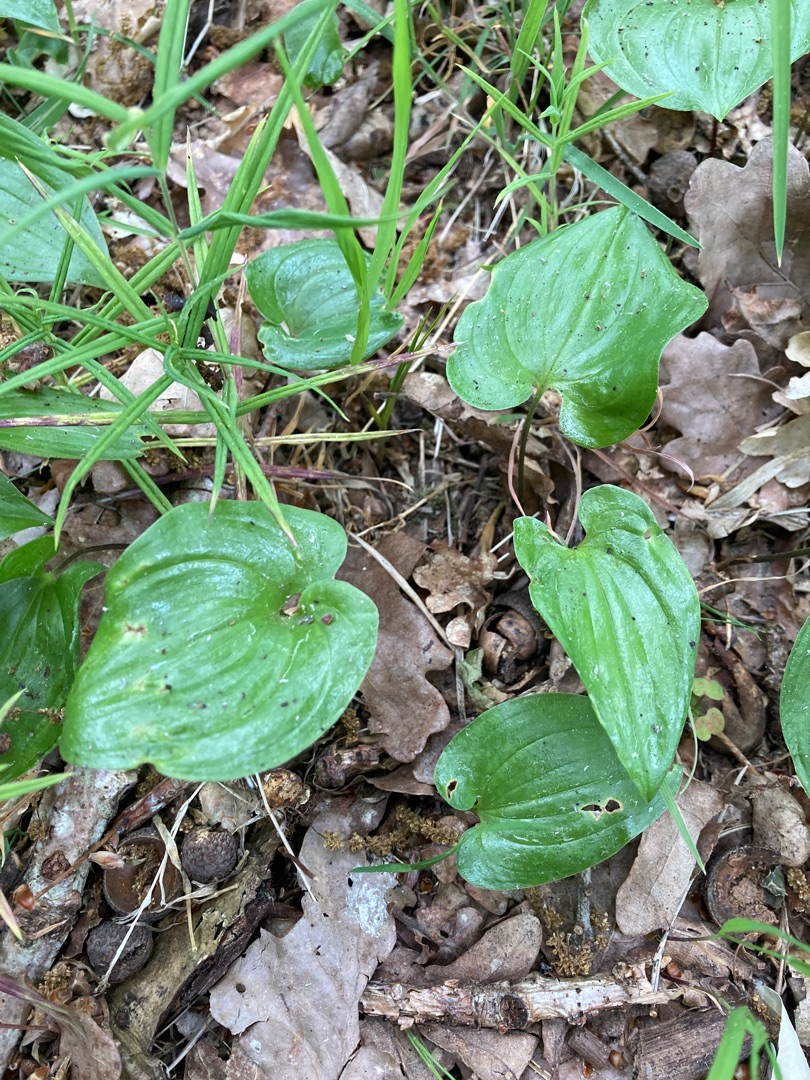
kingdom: Plantae
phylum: Tracheophyta
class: Liliopsida
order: Asparagales
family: Asparagaceae
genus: Maianthemum
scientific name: Maianthemum bifolium
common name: Majblomst
